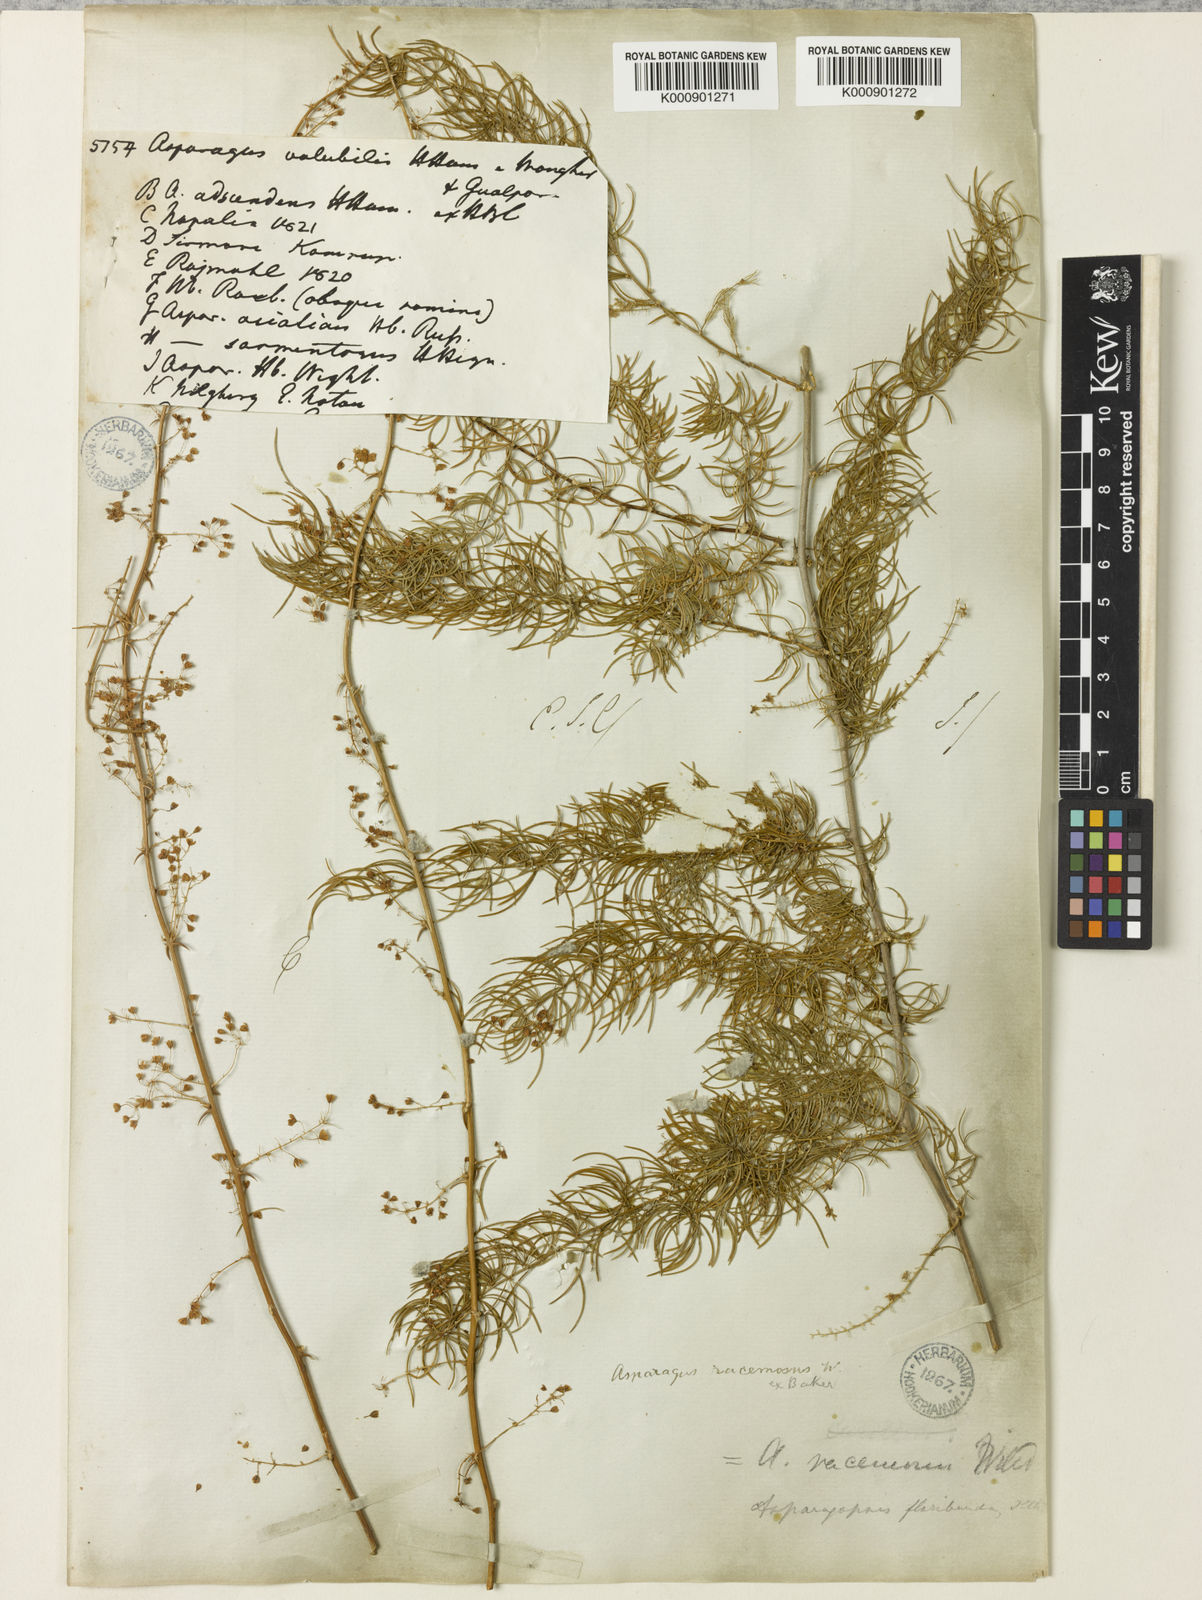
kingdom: Plantae
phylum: Tracheophyta
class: Liliopsida
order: Asparagales
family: Asparagaceae
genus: Asparagus
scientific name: Asparagus racemosus
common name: Asparagus-fern
